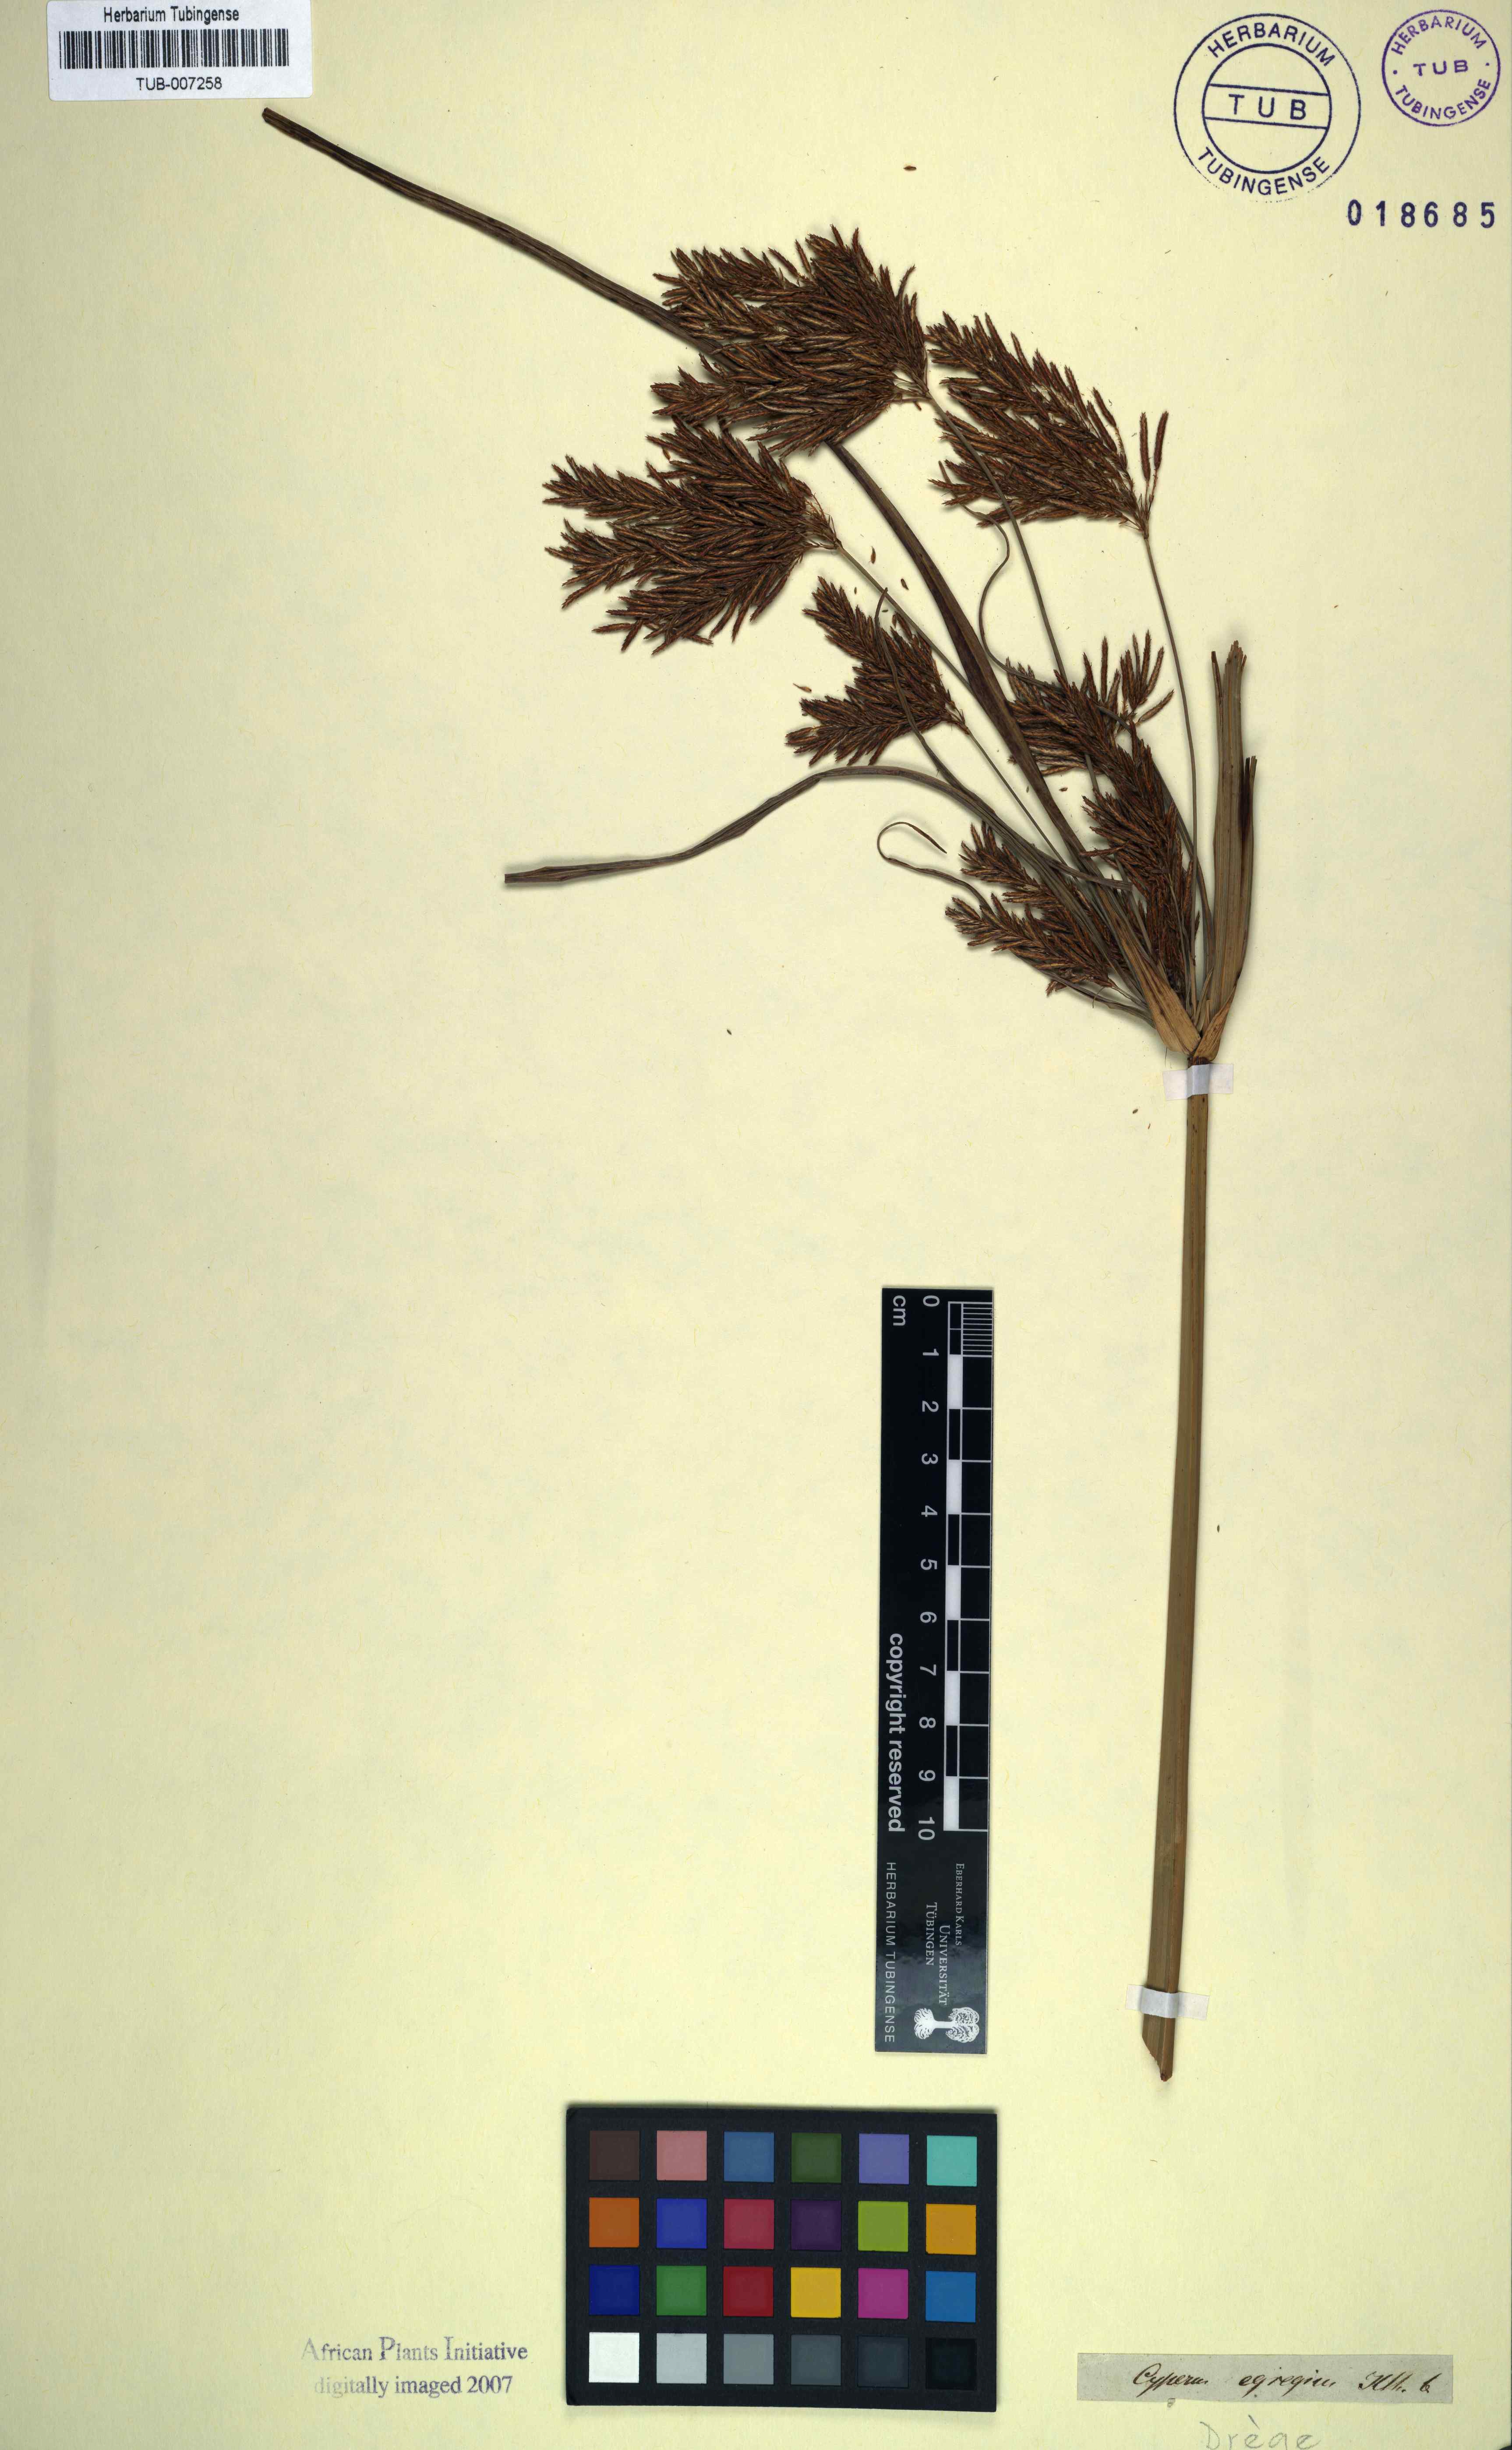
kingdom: Plantae
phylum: Tracheophyta
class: Liliopsida
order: Poales
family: Cyperaceae
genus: Cyperus
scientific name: Cyperus fastigiatus
